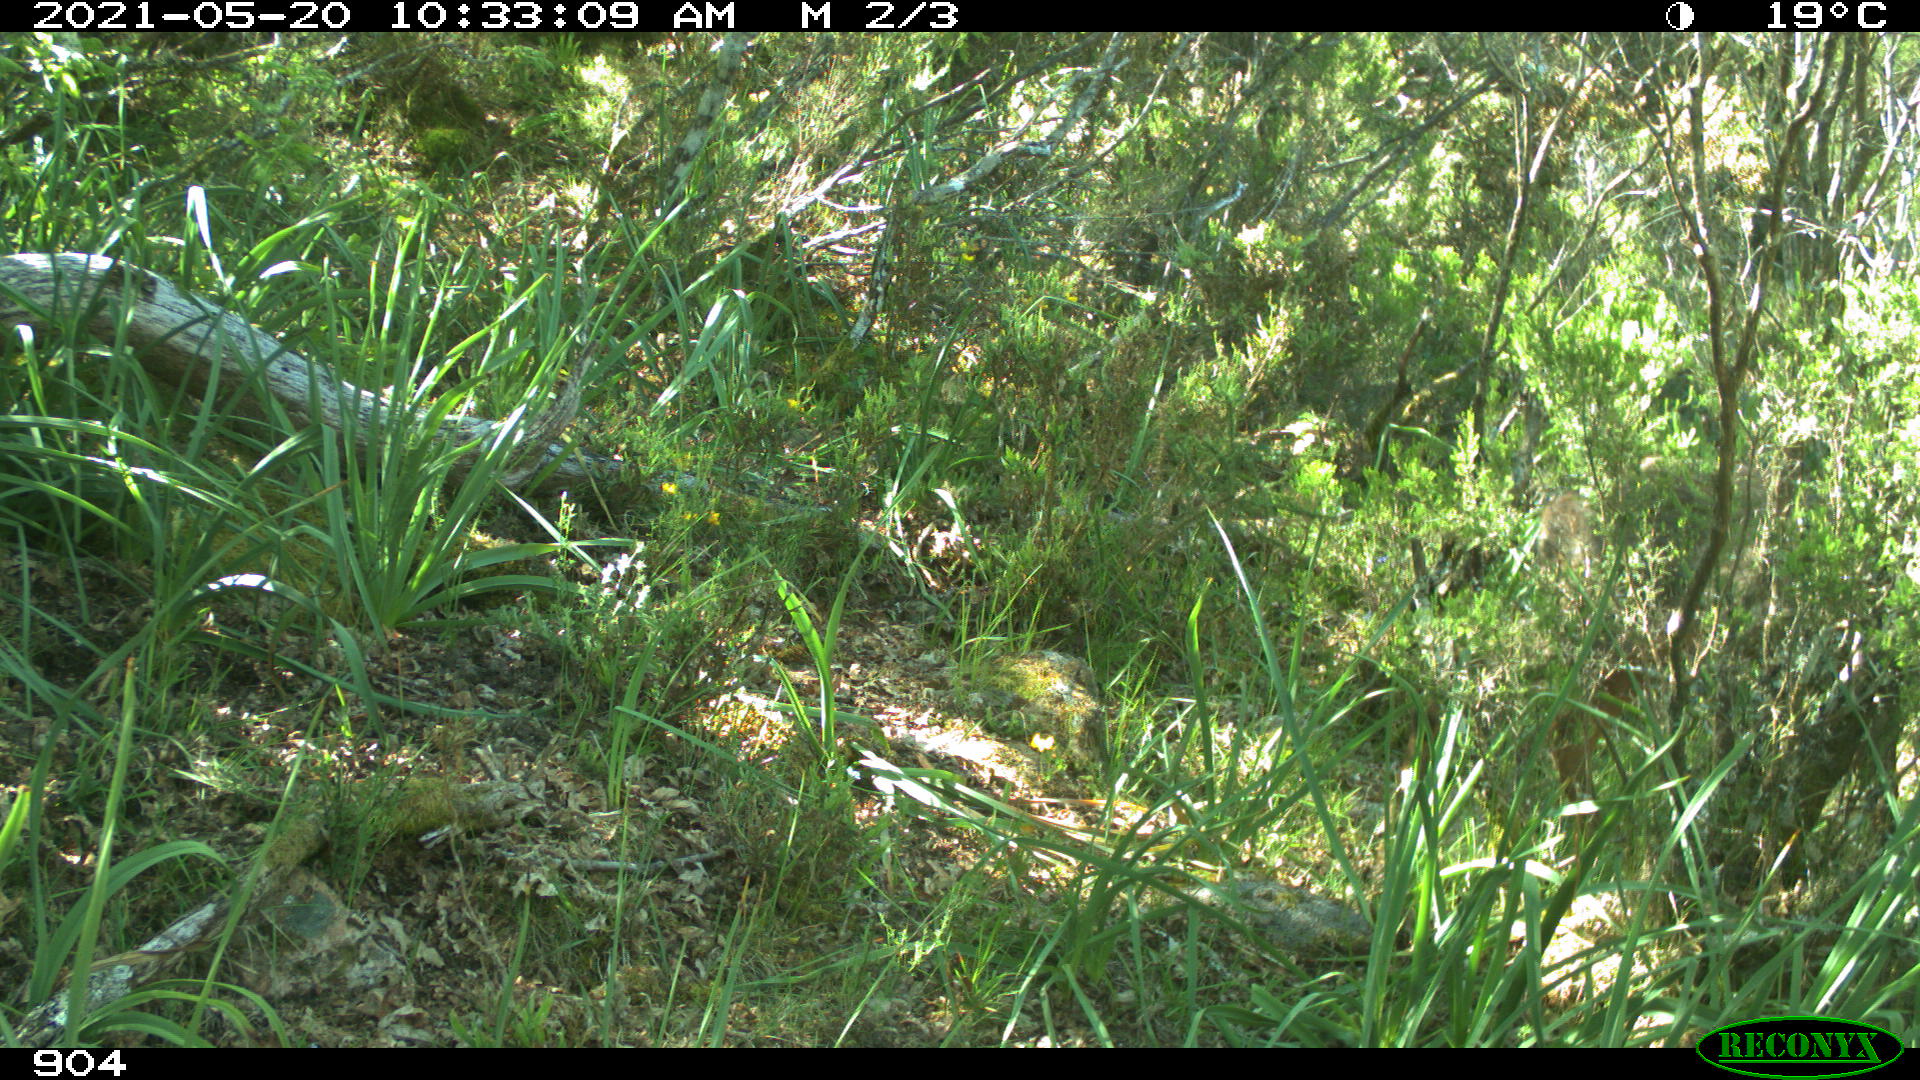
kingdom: Animalia
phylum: Chordata
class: Mammalia
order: Artiodactyla
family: Cervidae
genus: Capreolus
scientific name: Capreolus capreolus
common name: Western roe deer
